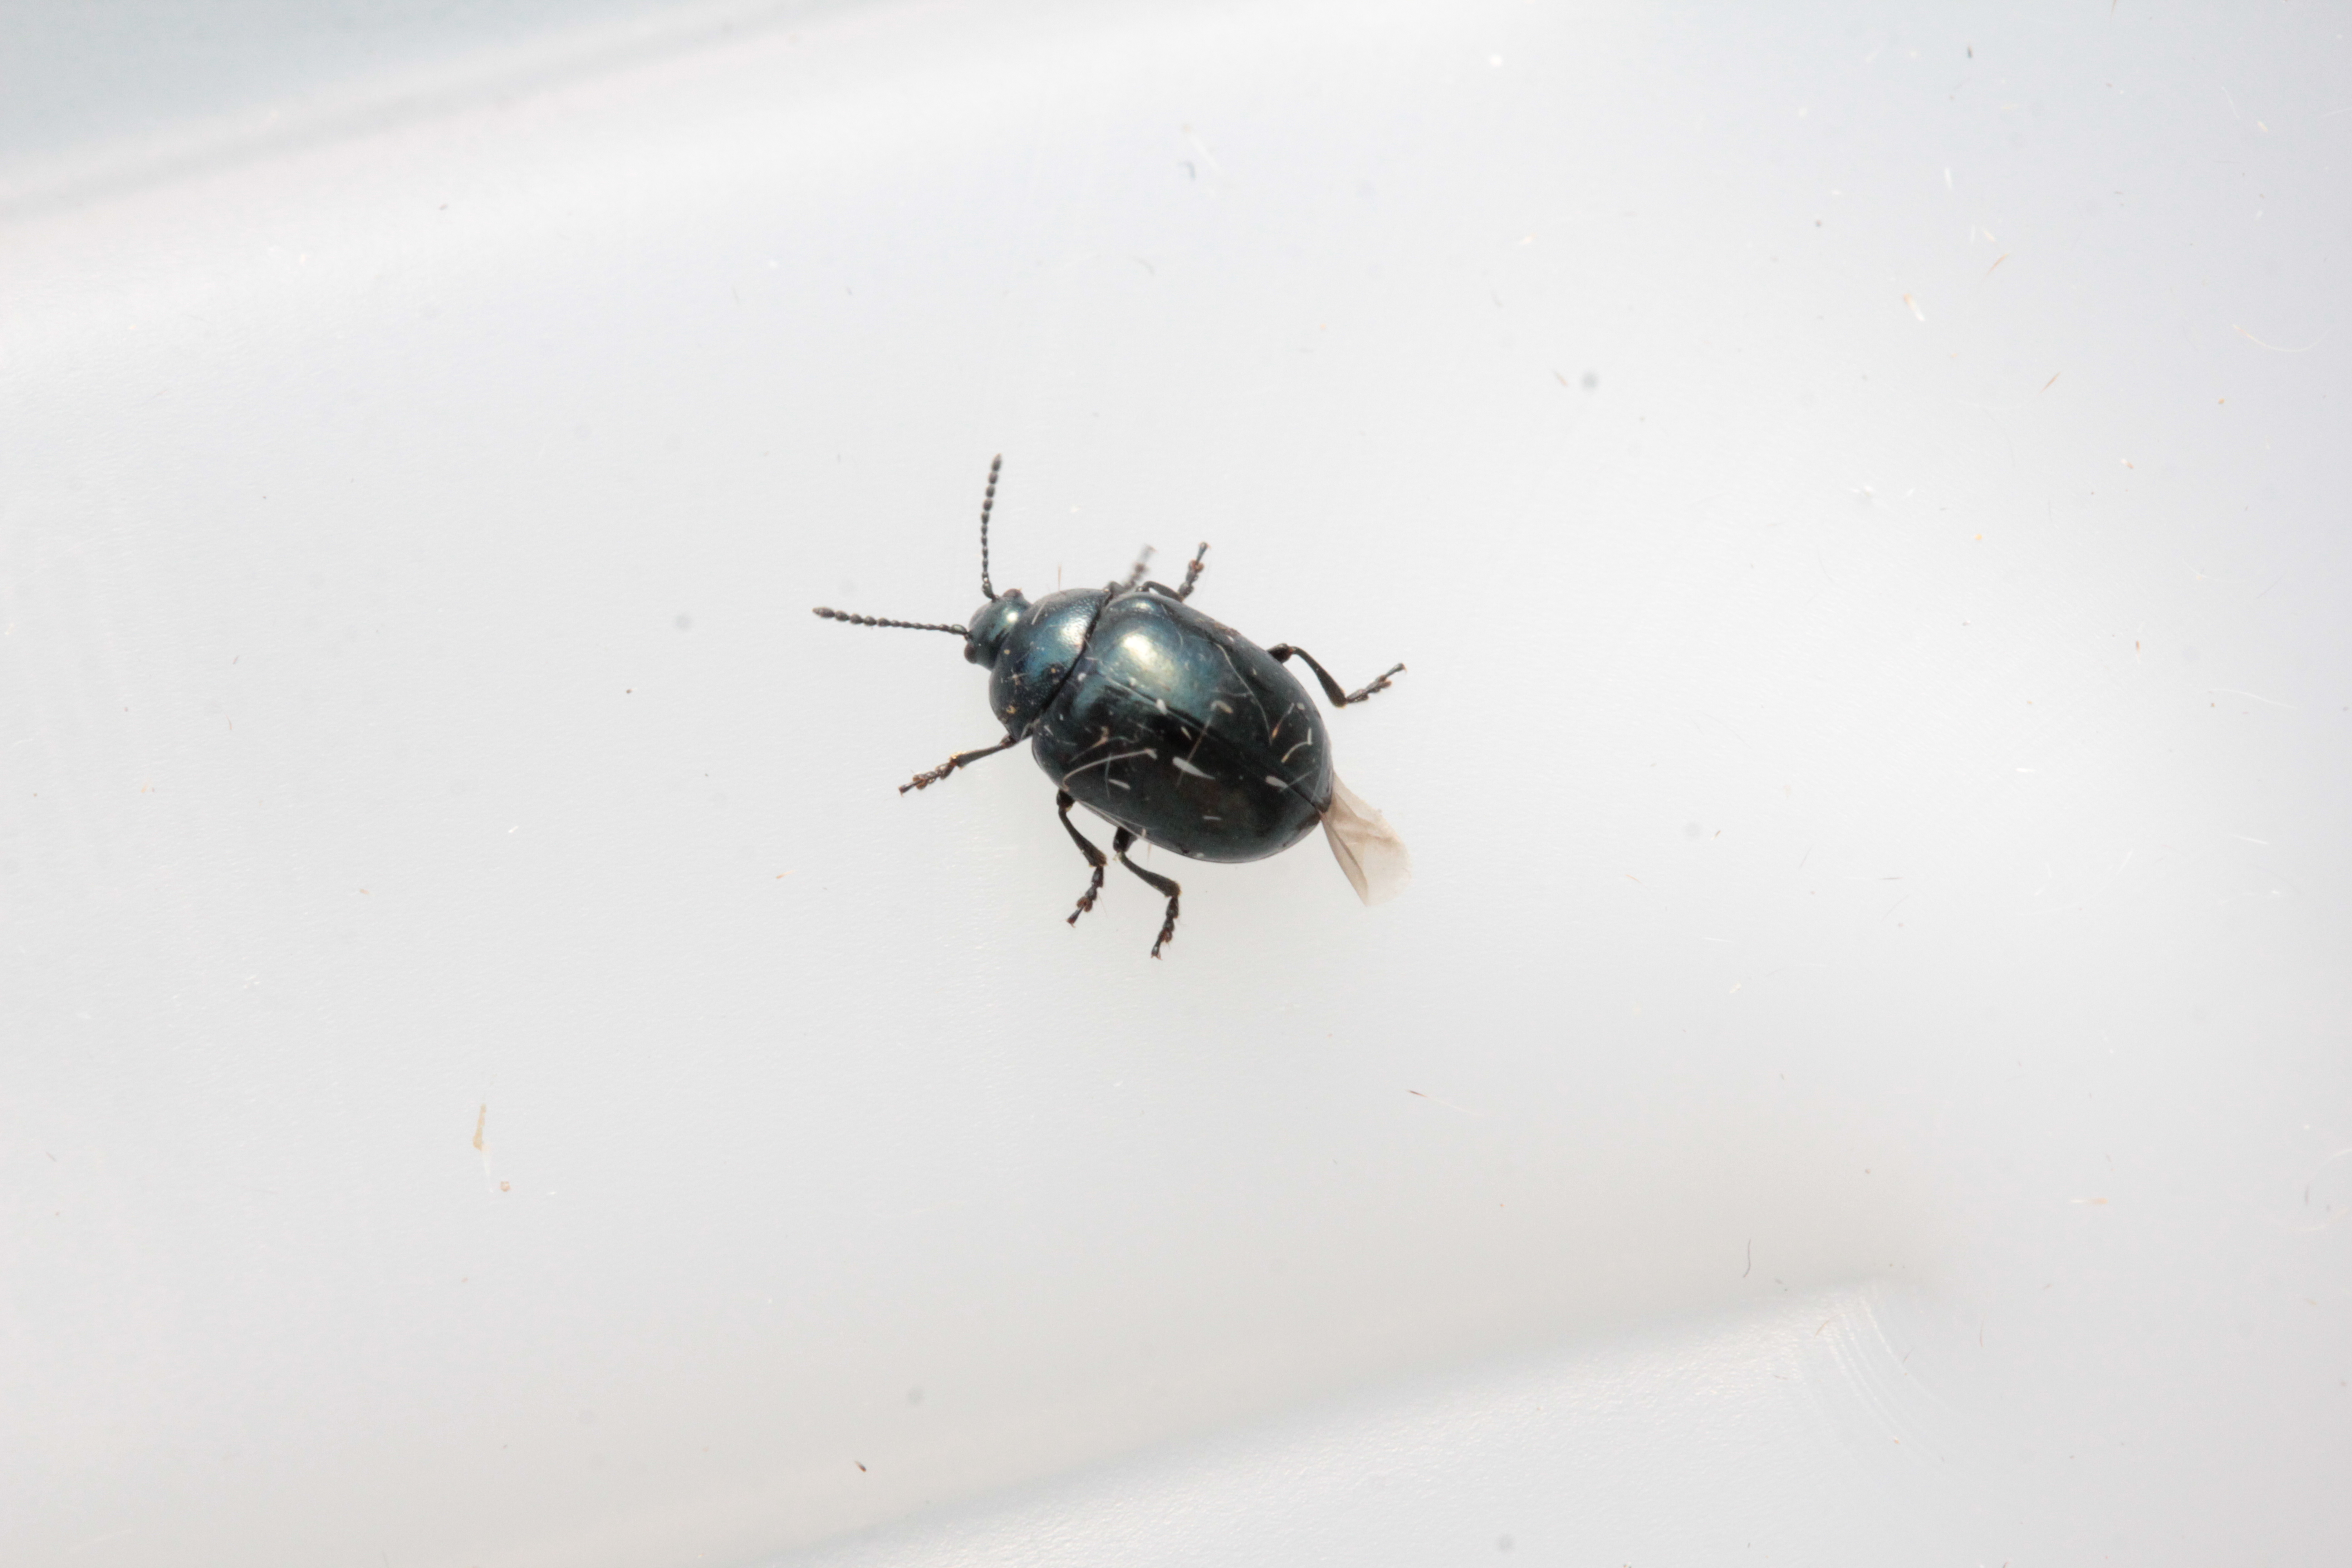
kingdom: Animalia
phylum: Arthropoda
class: Insecta
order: Coleoptera
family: Chrysomelidae
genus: Plagiodera
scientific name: Plagiodera versicolora
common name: Imported willow leaf beetle
